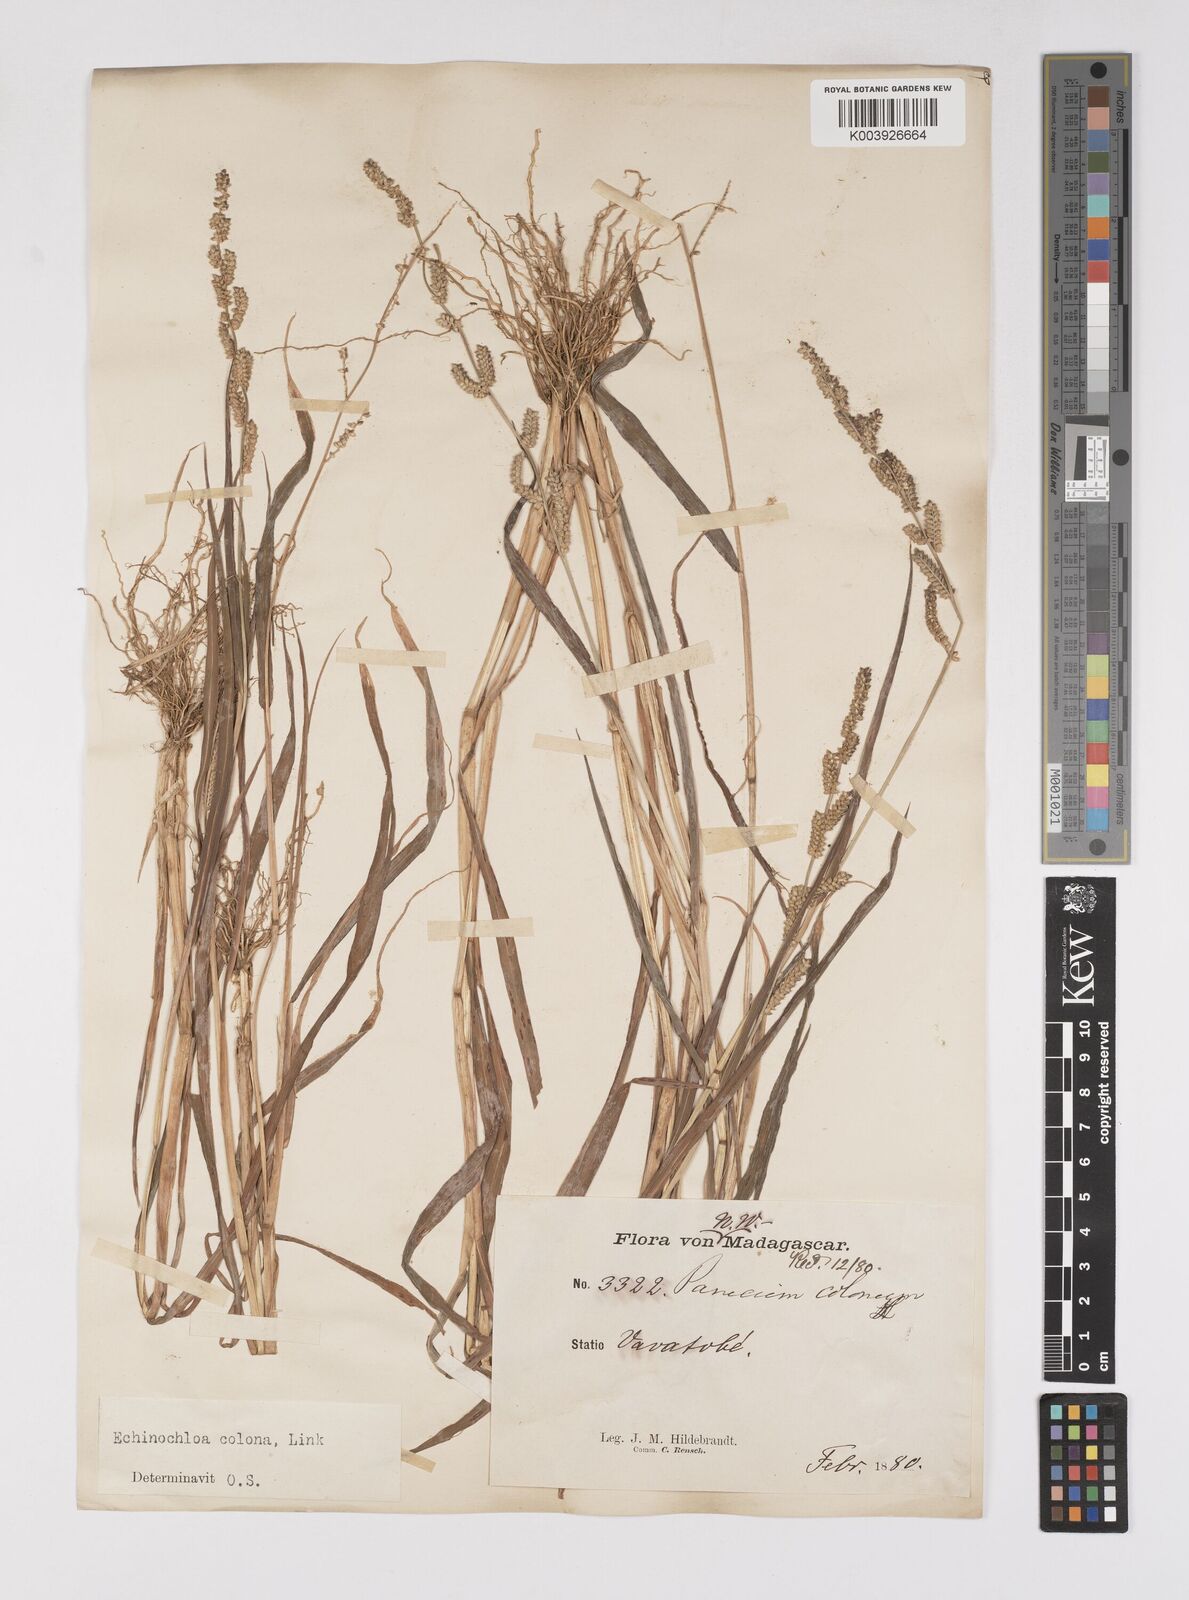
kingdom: Plantae
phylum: Tracheophyta
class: Liliopsida
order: Poales
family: Poaceae
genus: Echinochloa
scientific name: Echinochloa colonum
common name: Jungle rice
